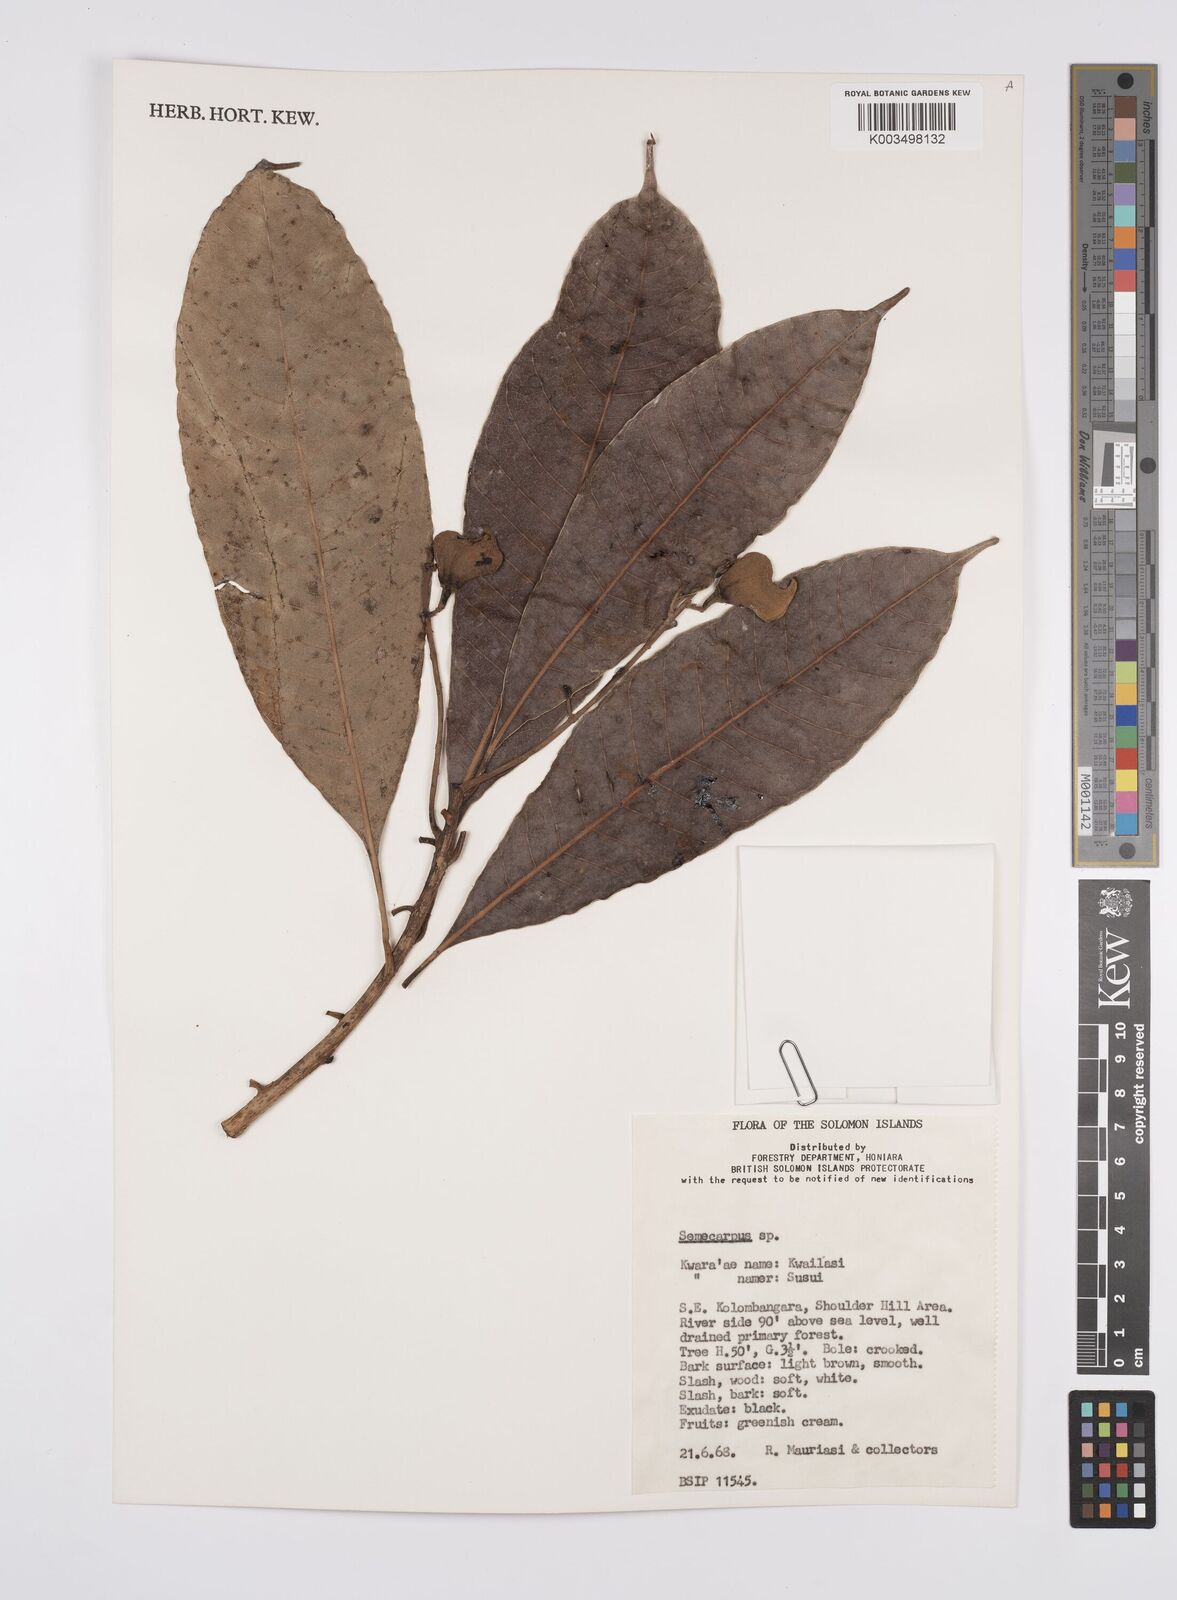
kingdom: Plantae
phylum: Tracheophyta
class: Magnoliopsida
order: Sapindales
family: Anacardiaceae
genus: Semecarpus
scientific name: Semecarpus
